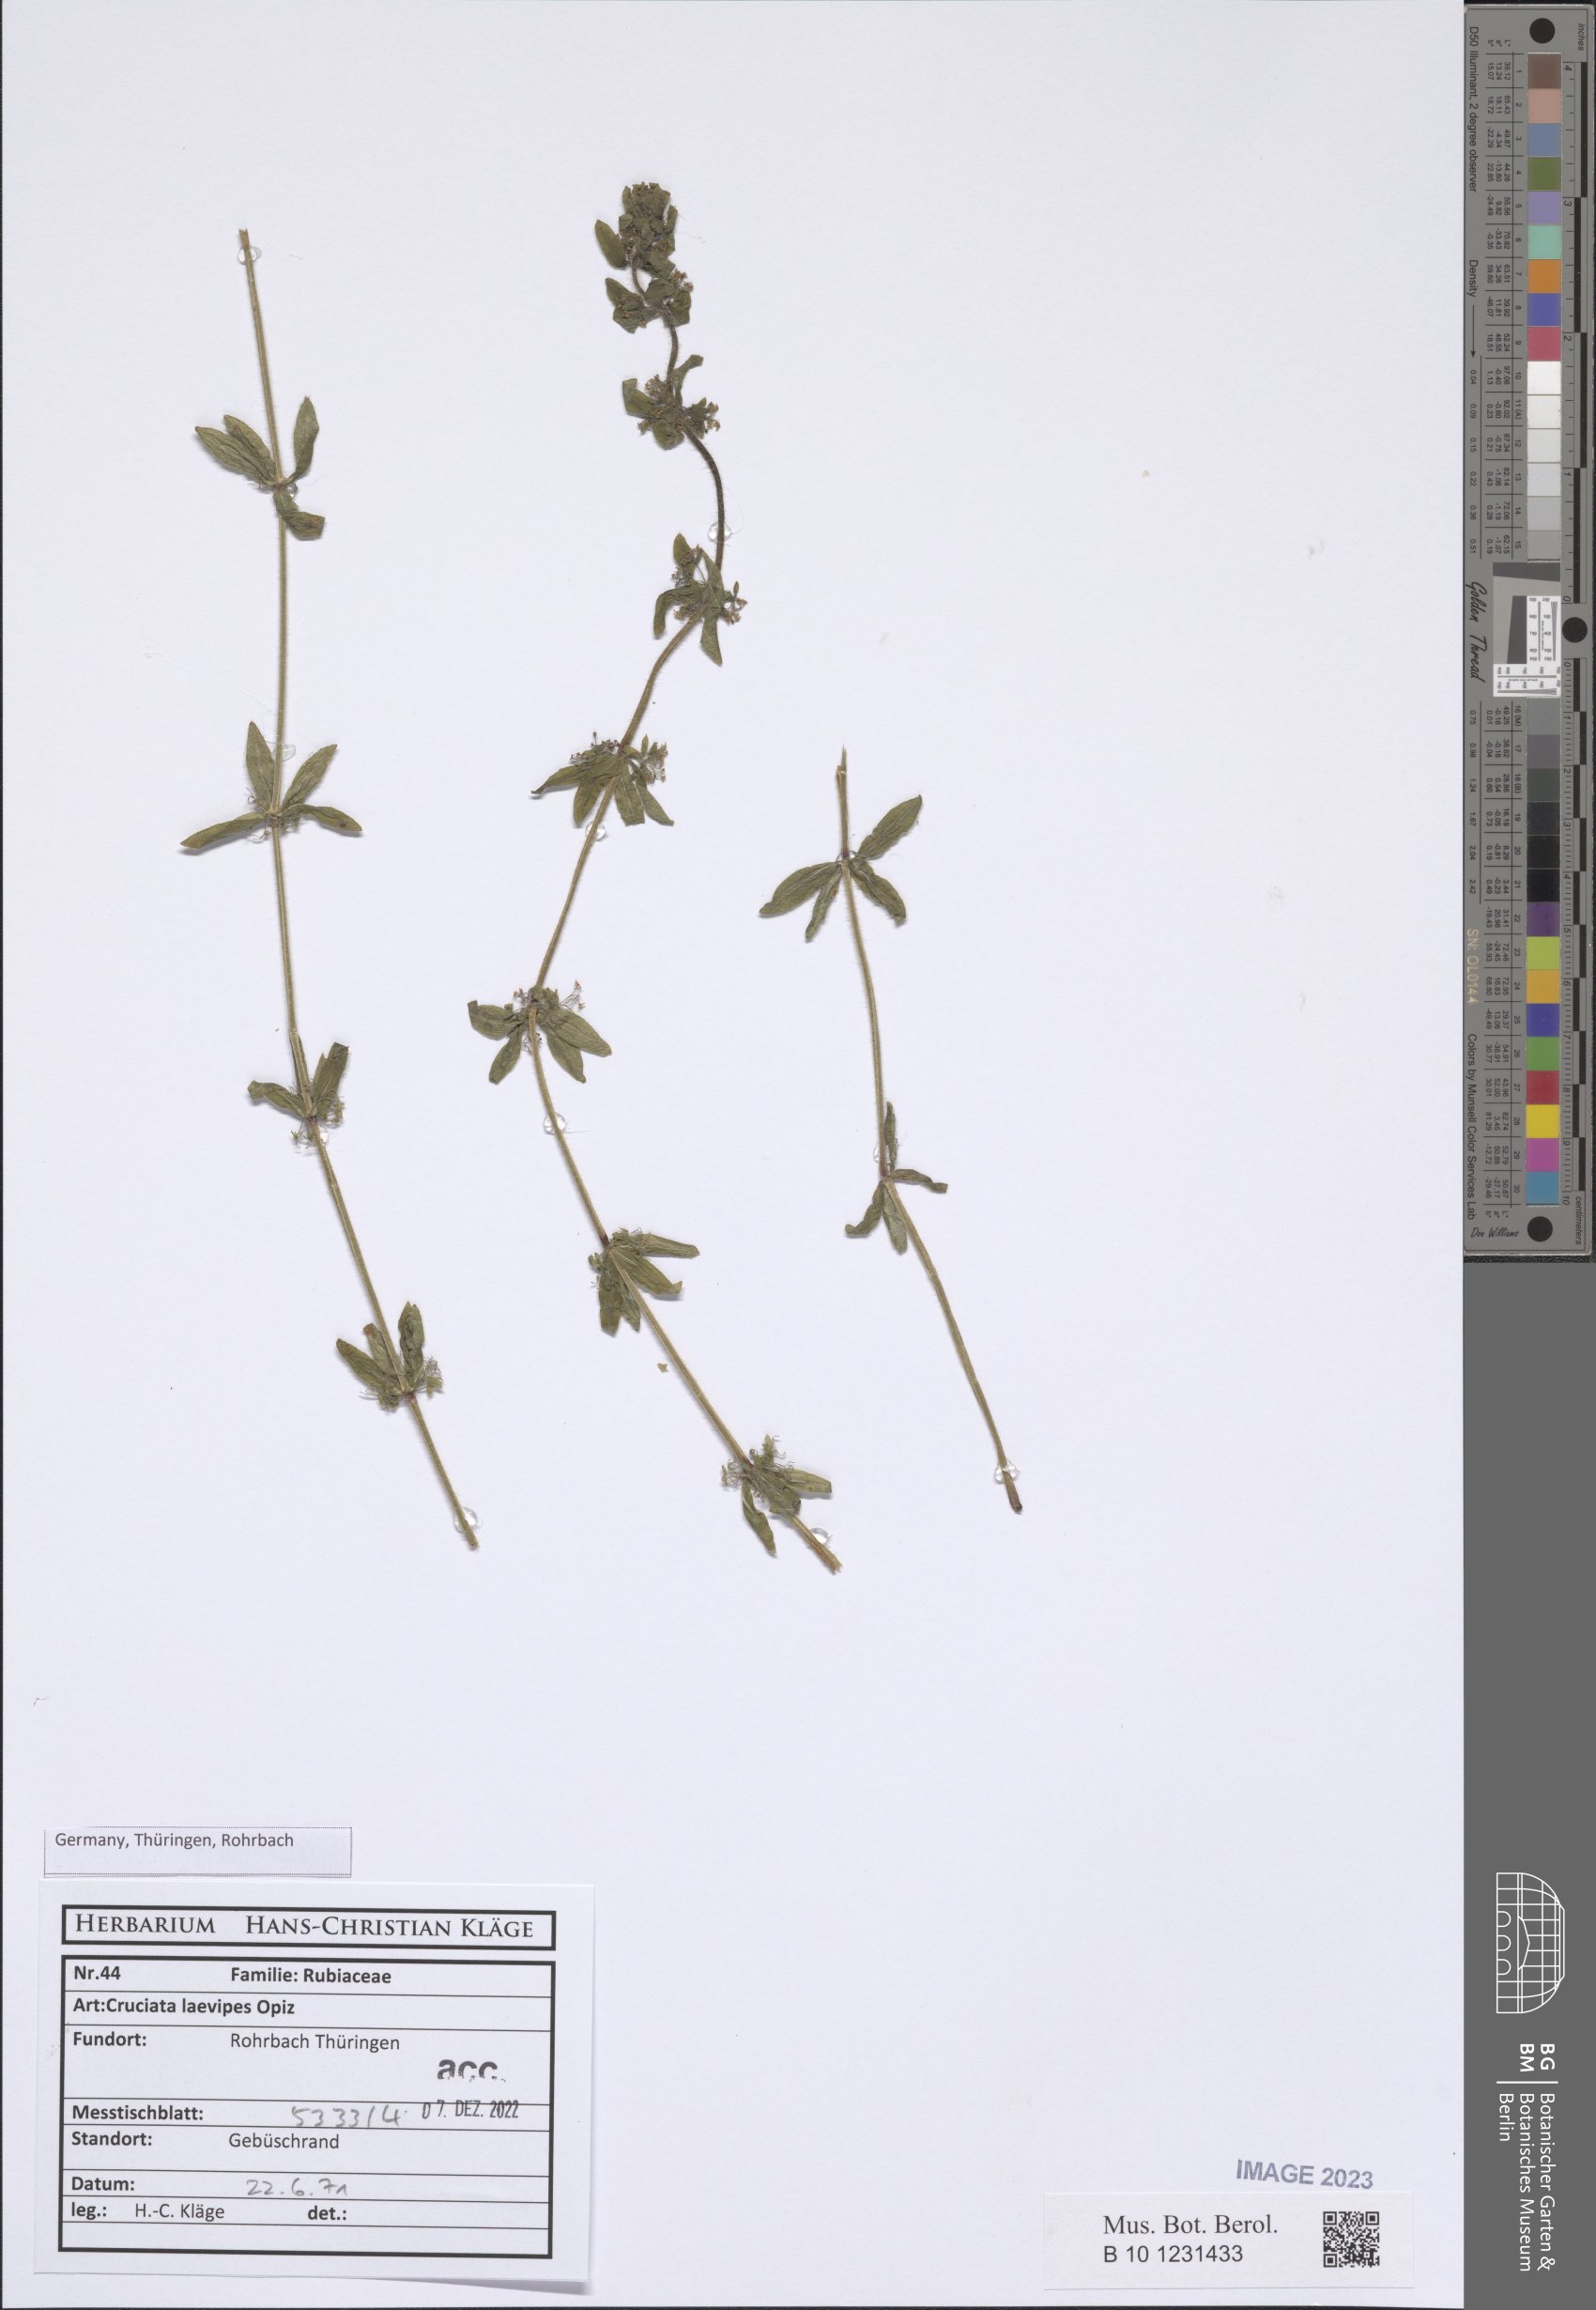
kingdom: Plantae
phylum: Tracheophyta
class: Magnoliopsida
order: Gentianales
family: Rubiaceae
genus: Cruciata
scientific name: Cruciata laevipes
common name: Crosswort
